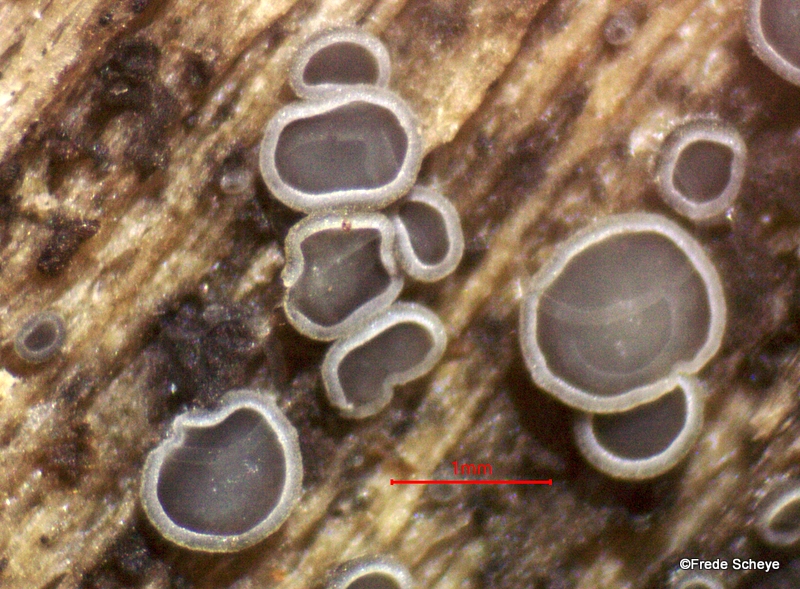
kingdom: Fungi
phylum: Ascomycota
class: Leotiomycetes
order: Helotiales
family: Mollisiaceae
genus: Mollisia
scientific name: Mollisia
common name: gråskive
